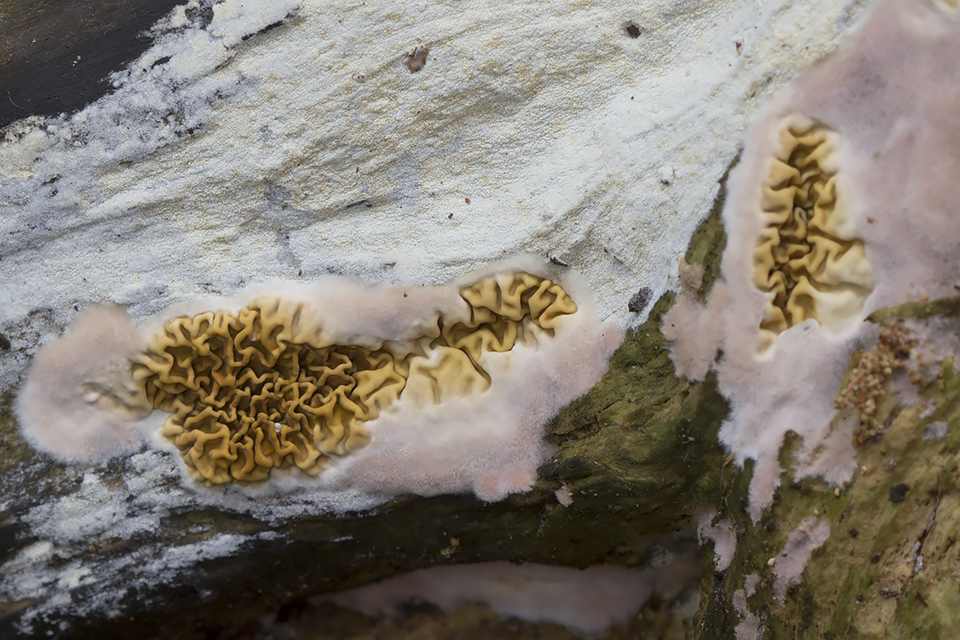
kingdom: Fungi
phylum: Basidiomycota
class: Agaricomycetes
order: Boletales
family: Serpulaceae
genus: Serpula
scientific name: Serpula himantioides
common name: tyndkødet hussvamp
